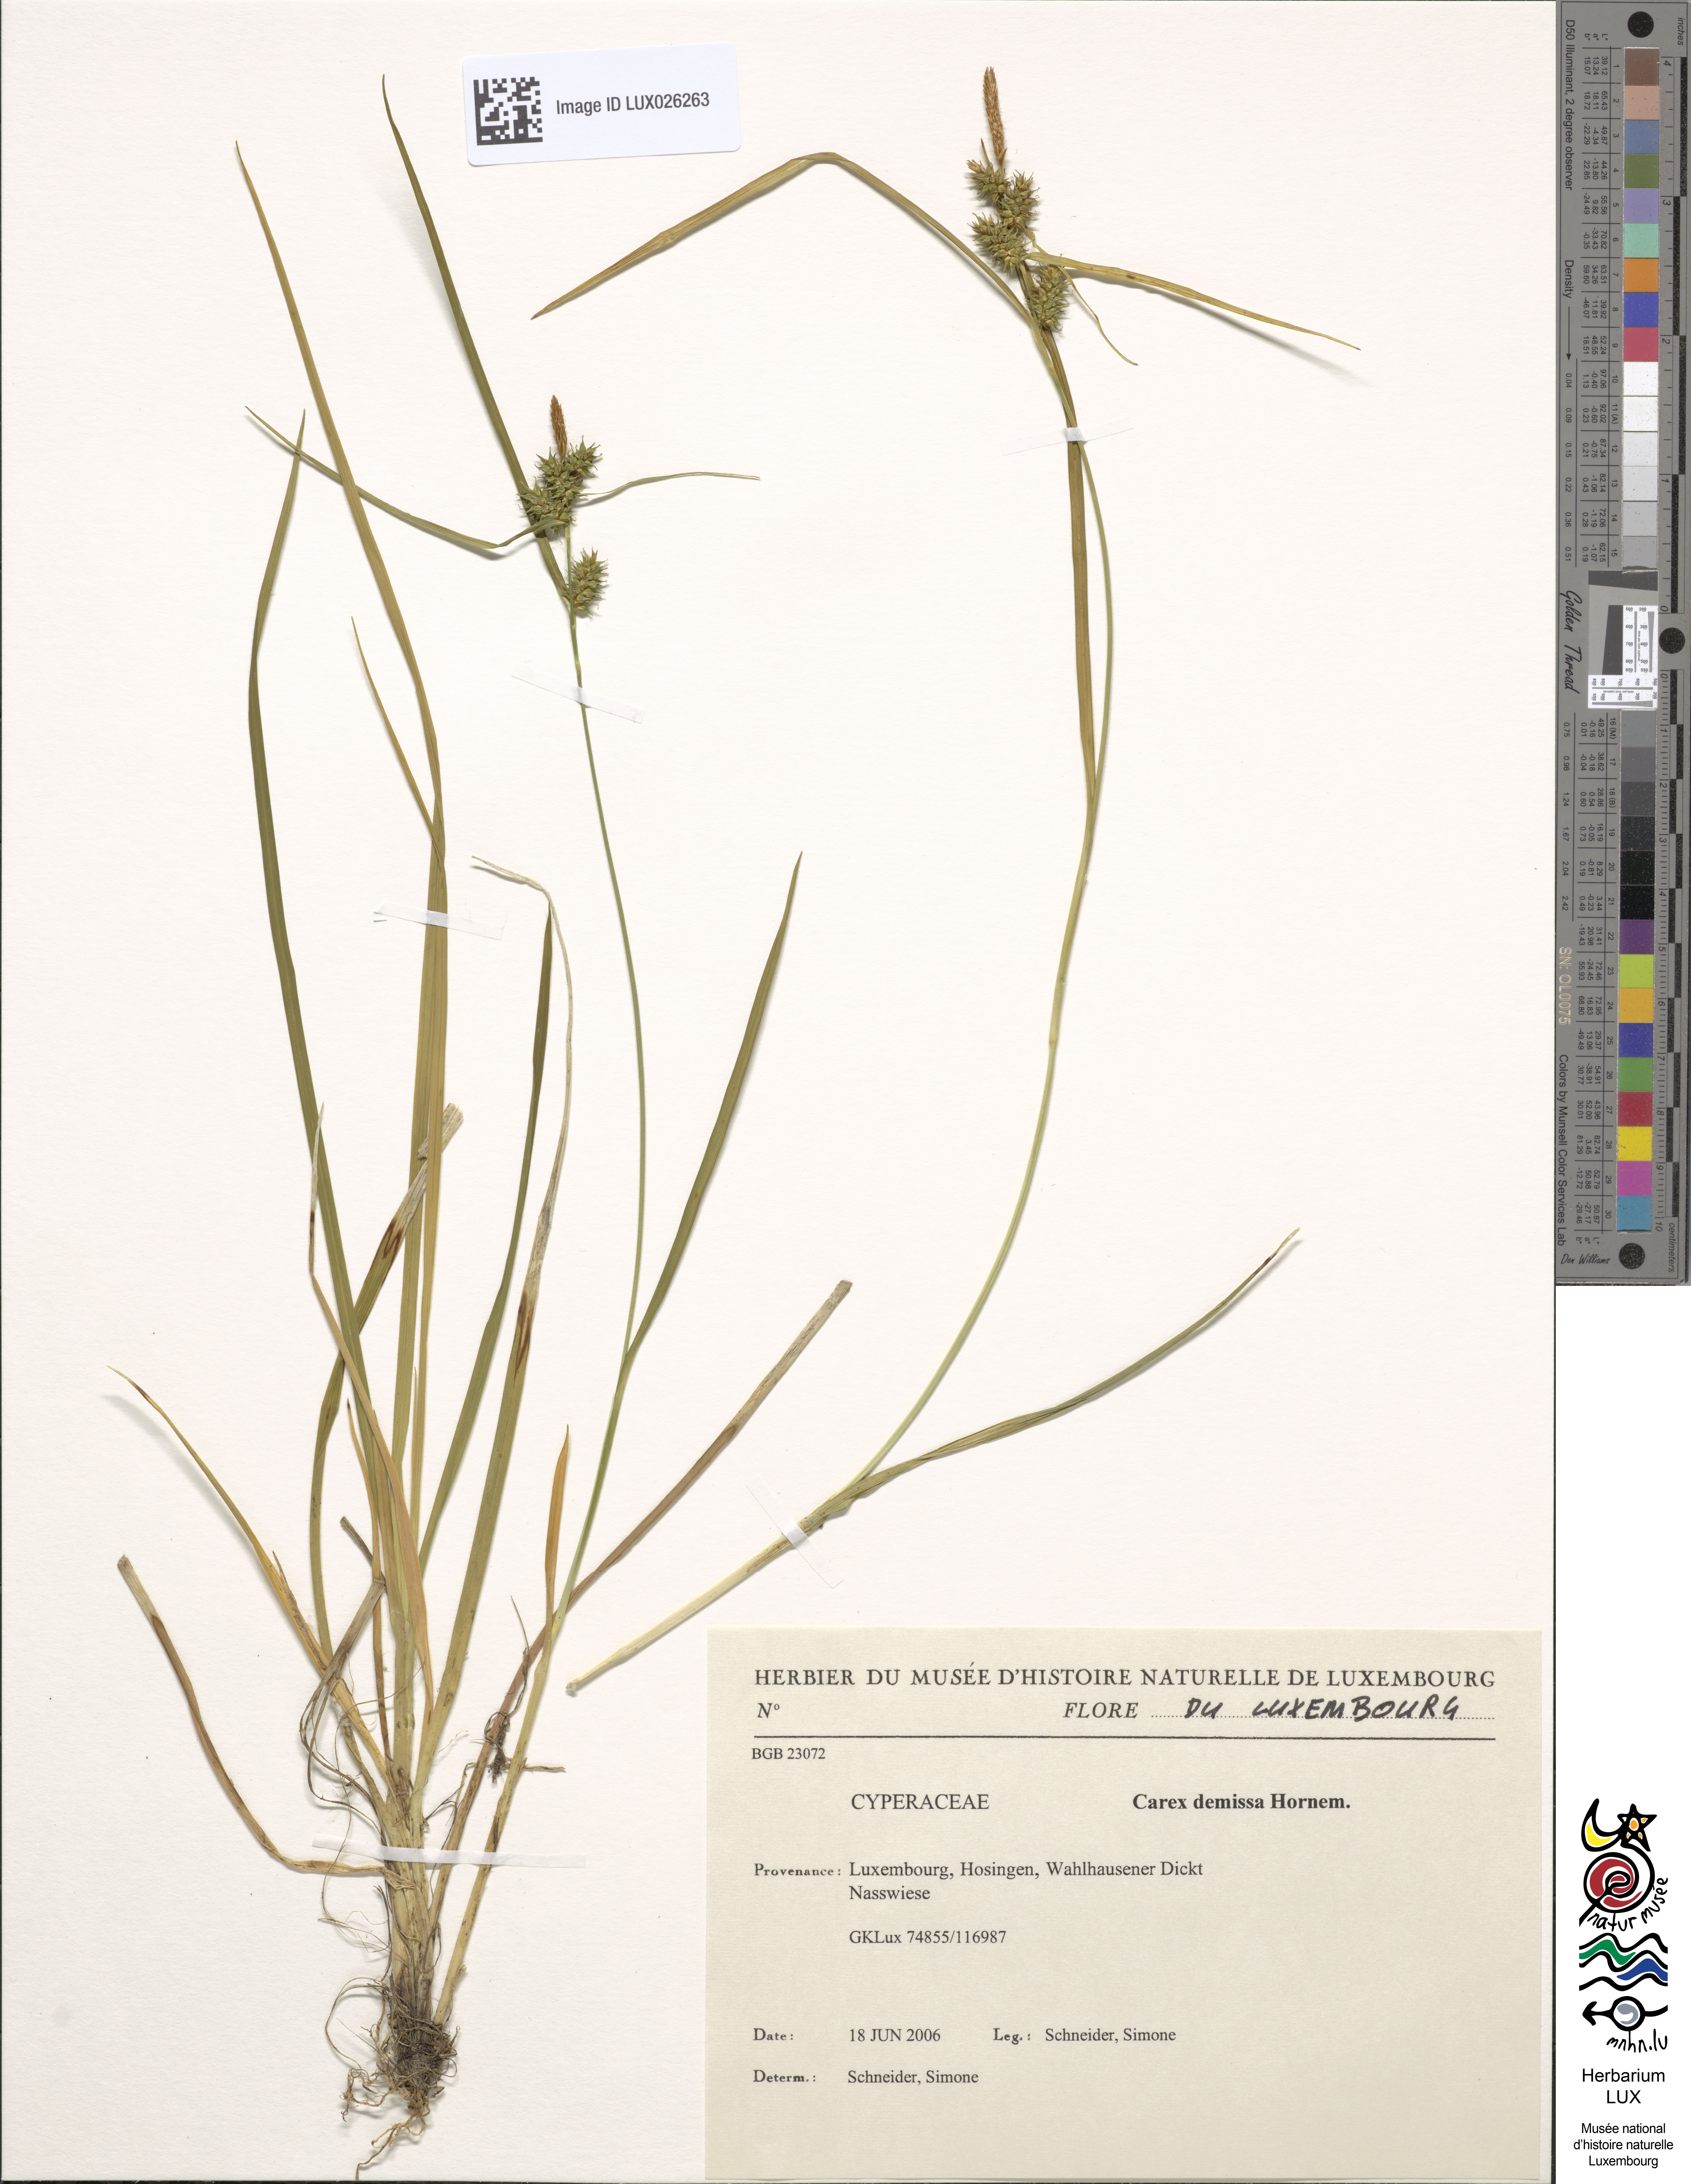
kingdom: Plantae
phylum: Tracheophyta
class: Liliopsida
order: Poales
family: Cyperaceae
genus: Carex
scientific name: Carex demissa
